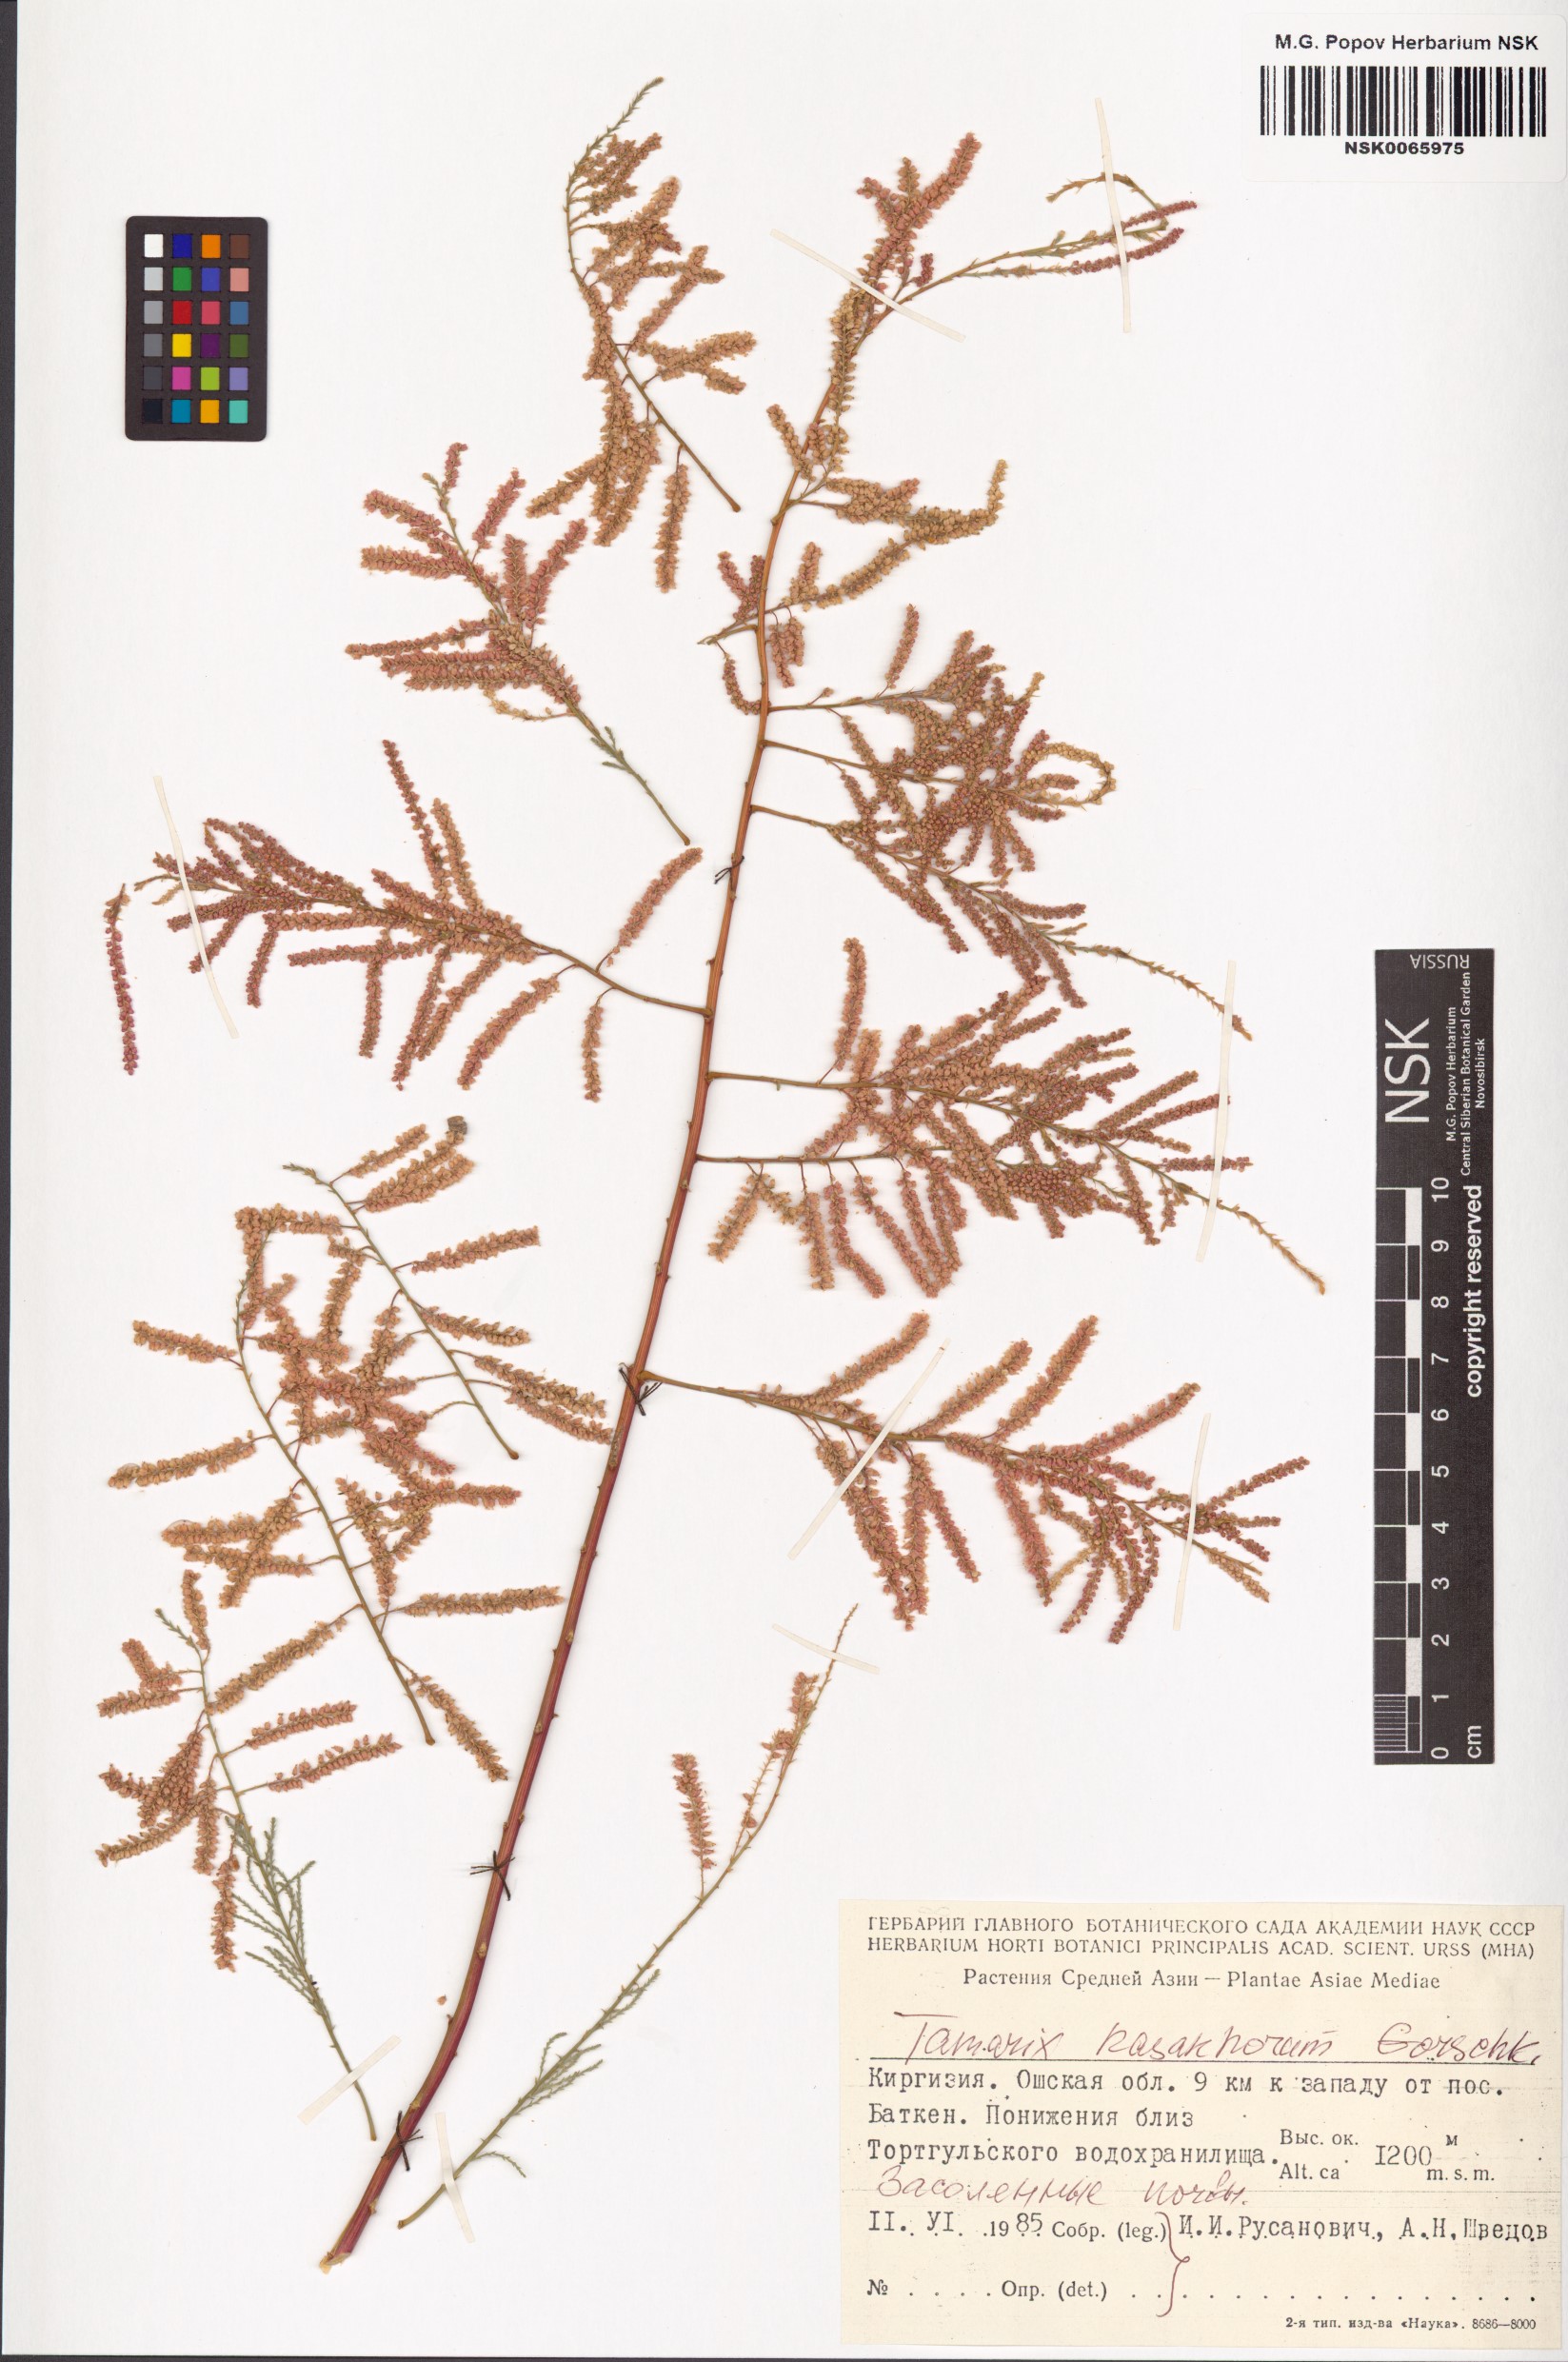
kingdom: Plantae
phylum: Tracheophyta
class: Magnoliopsida
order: Caryophyllales
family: Tamaricaceae
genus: Tamarix
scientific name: Tamarix kasahorum
